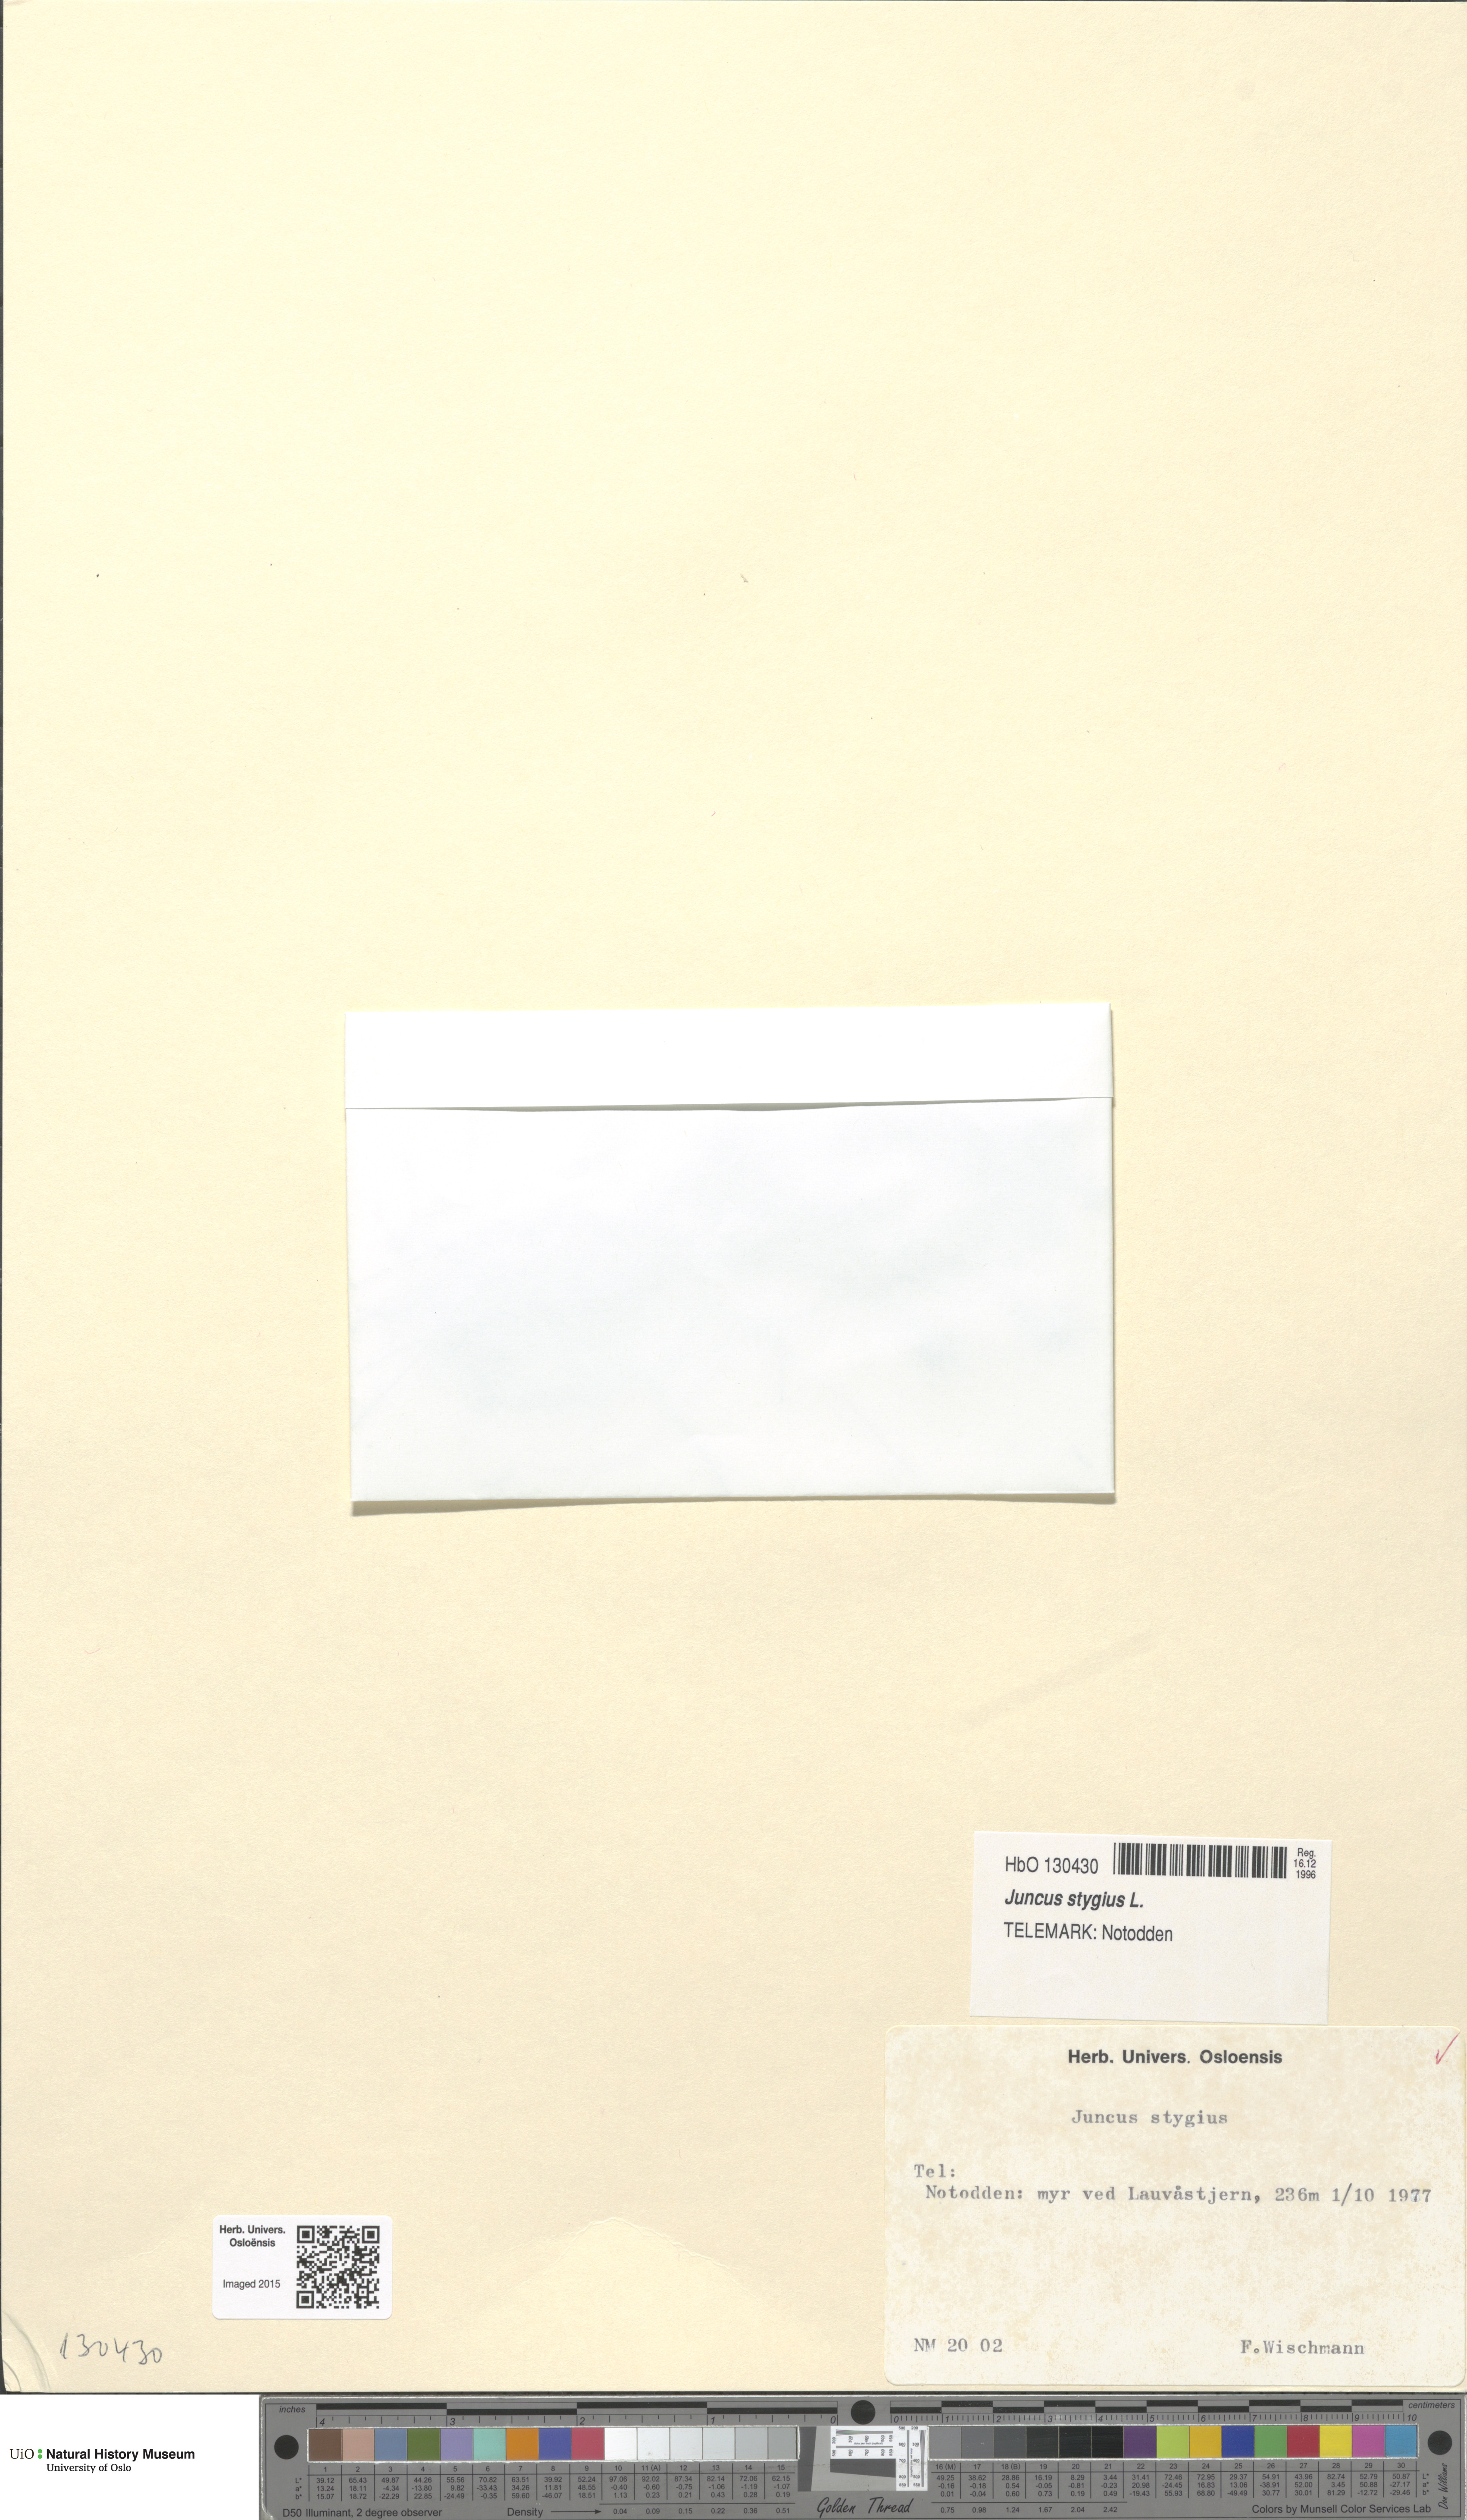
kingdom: Plantae
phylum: Tracheophyta
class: Liliopsida
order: Poales
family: Juncaceae
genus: Juncus
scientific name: Juncus stygius
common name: Bog rush
